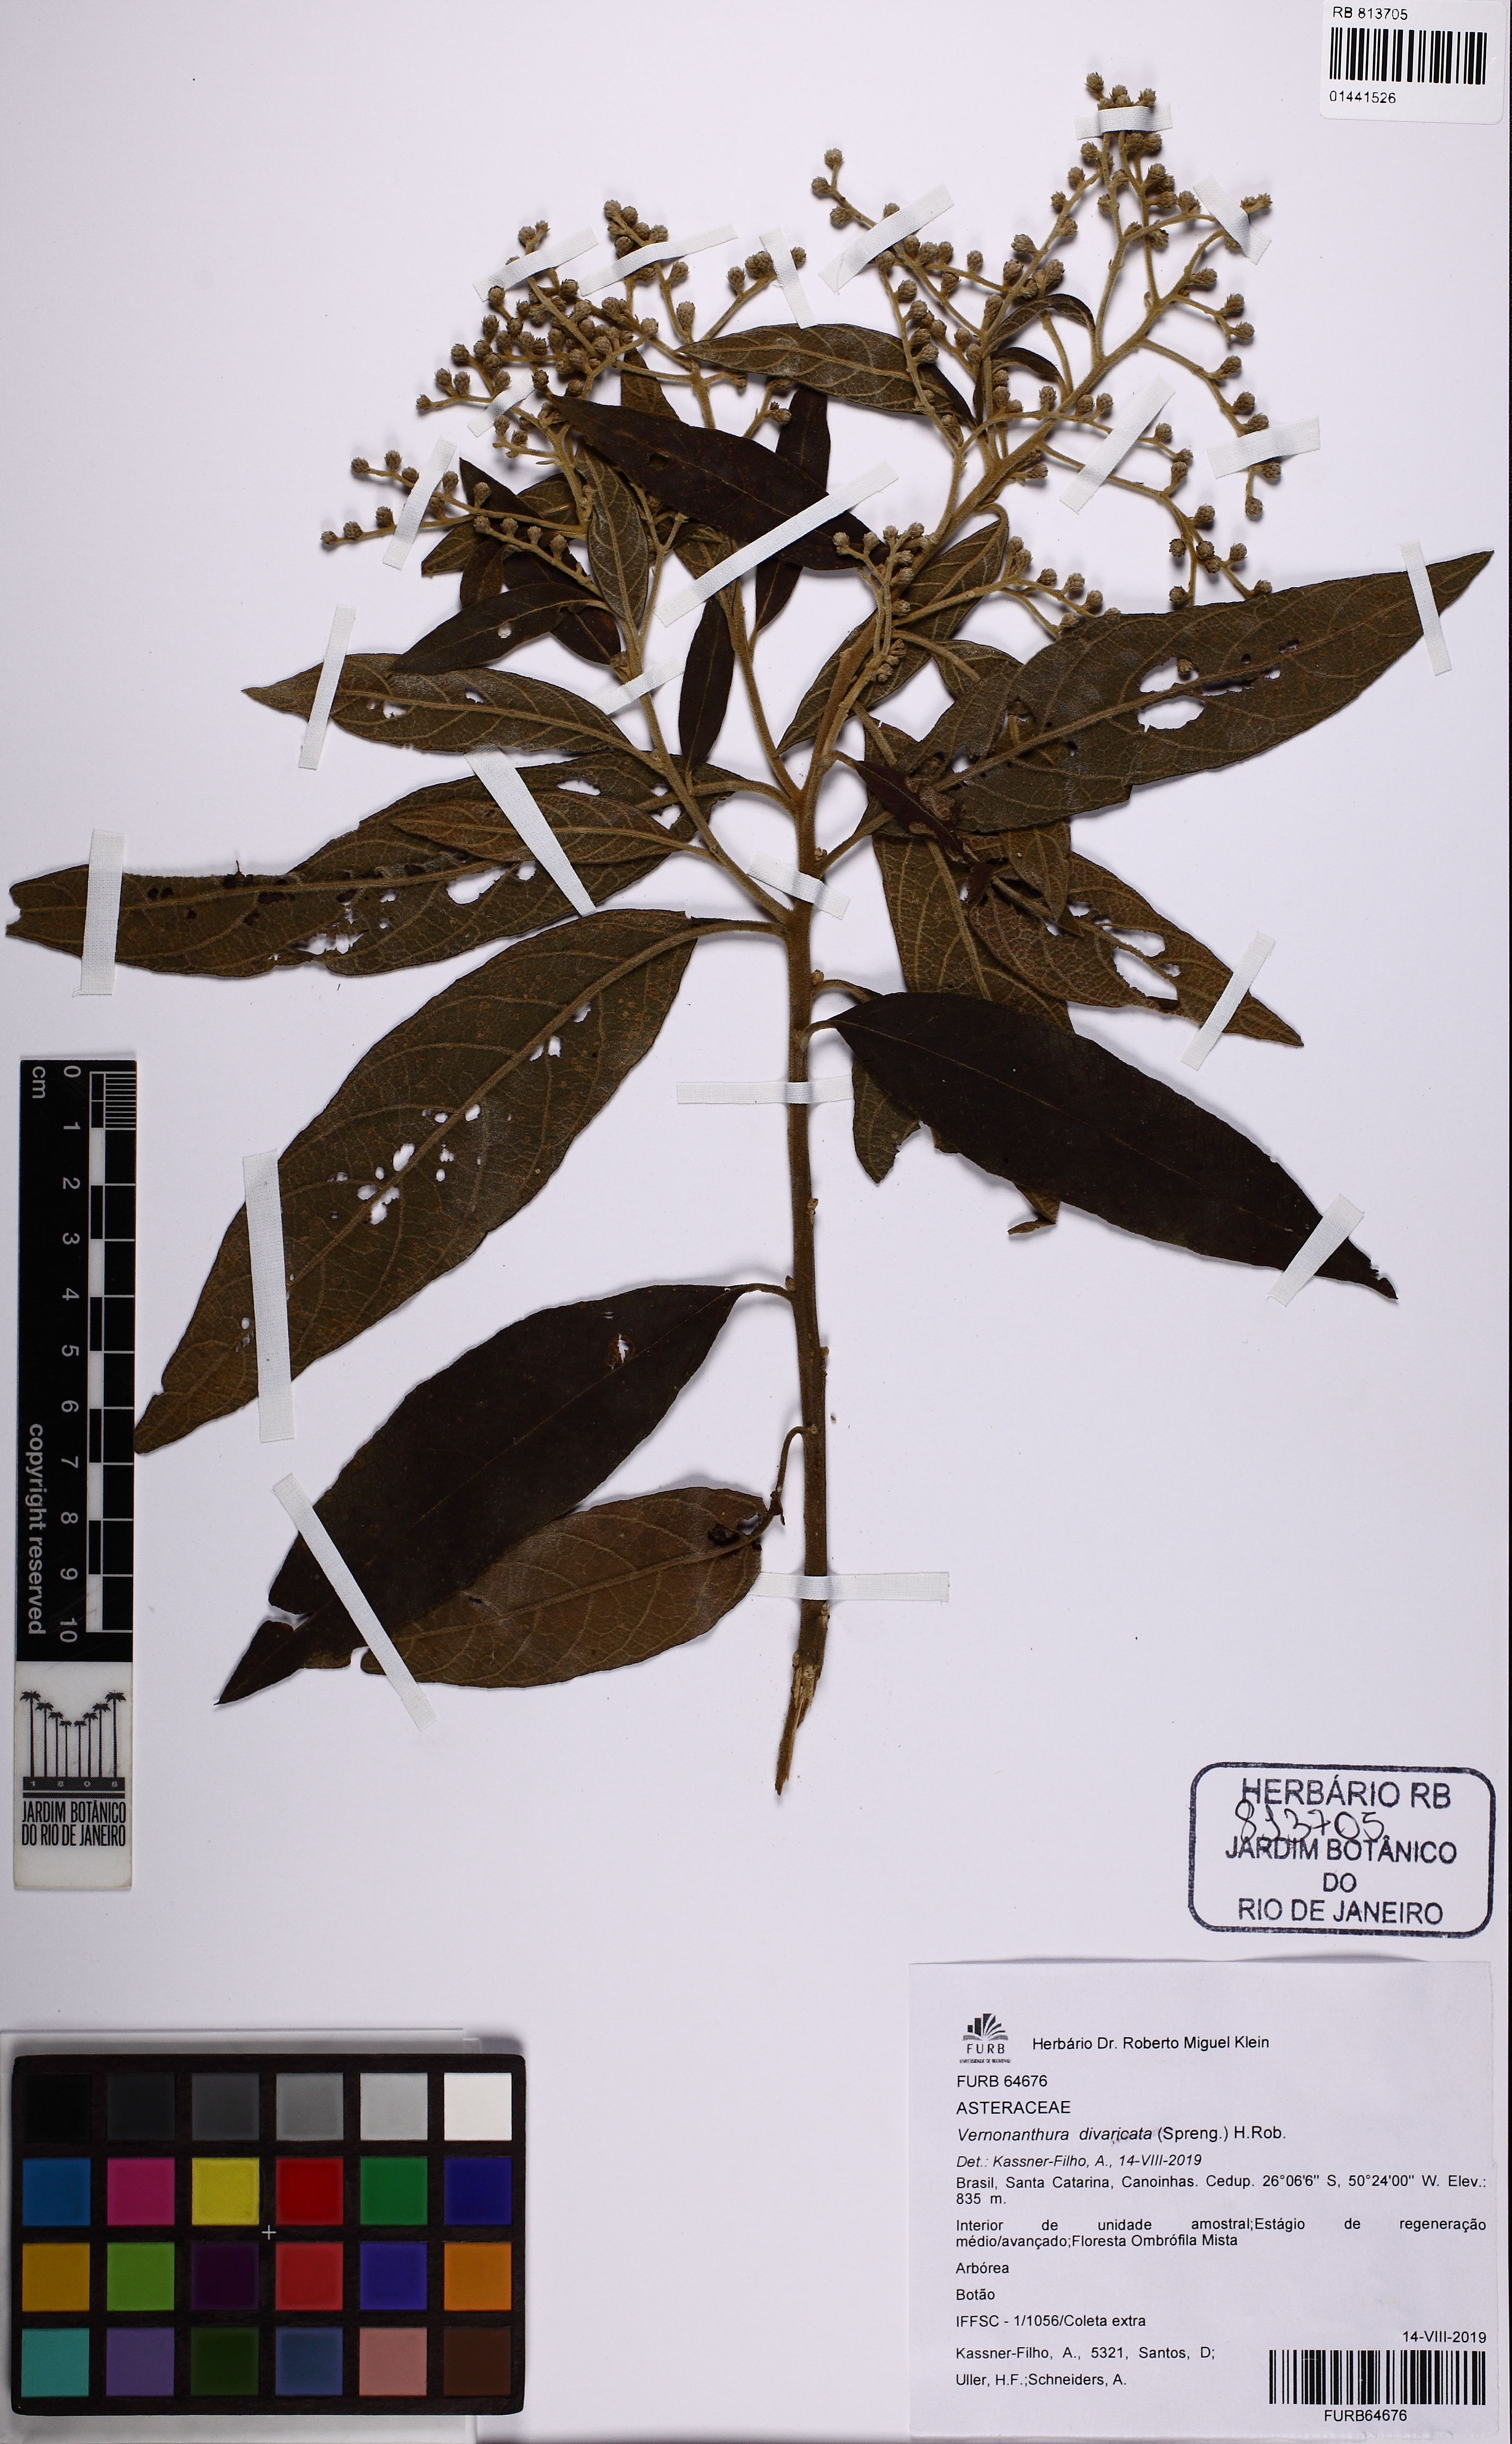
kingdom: Plantae
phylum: Tracheophyta
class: Magnoliopsida
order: Asterales
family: Asteraceae
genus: Vernonanthura
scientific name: Vernonanthura divaricata
